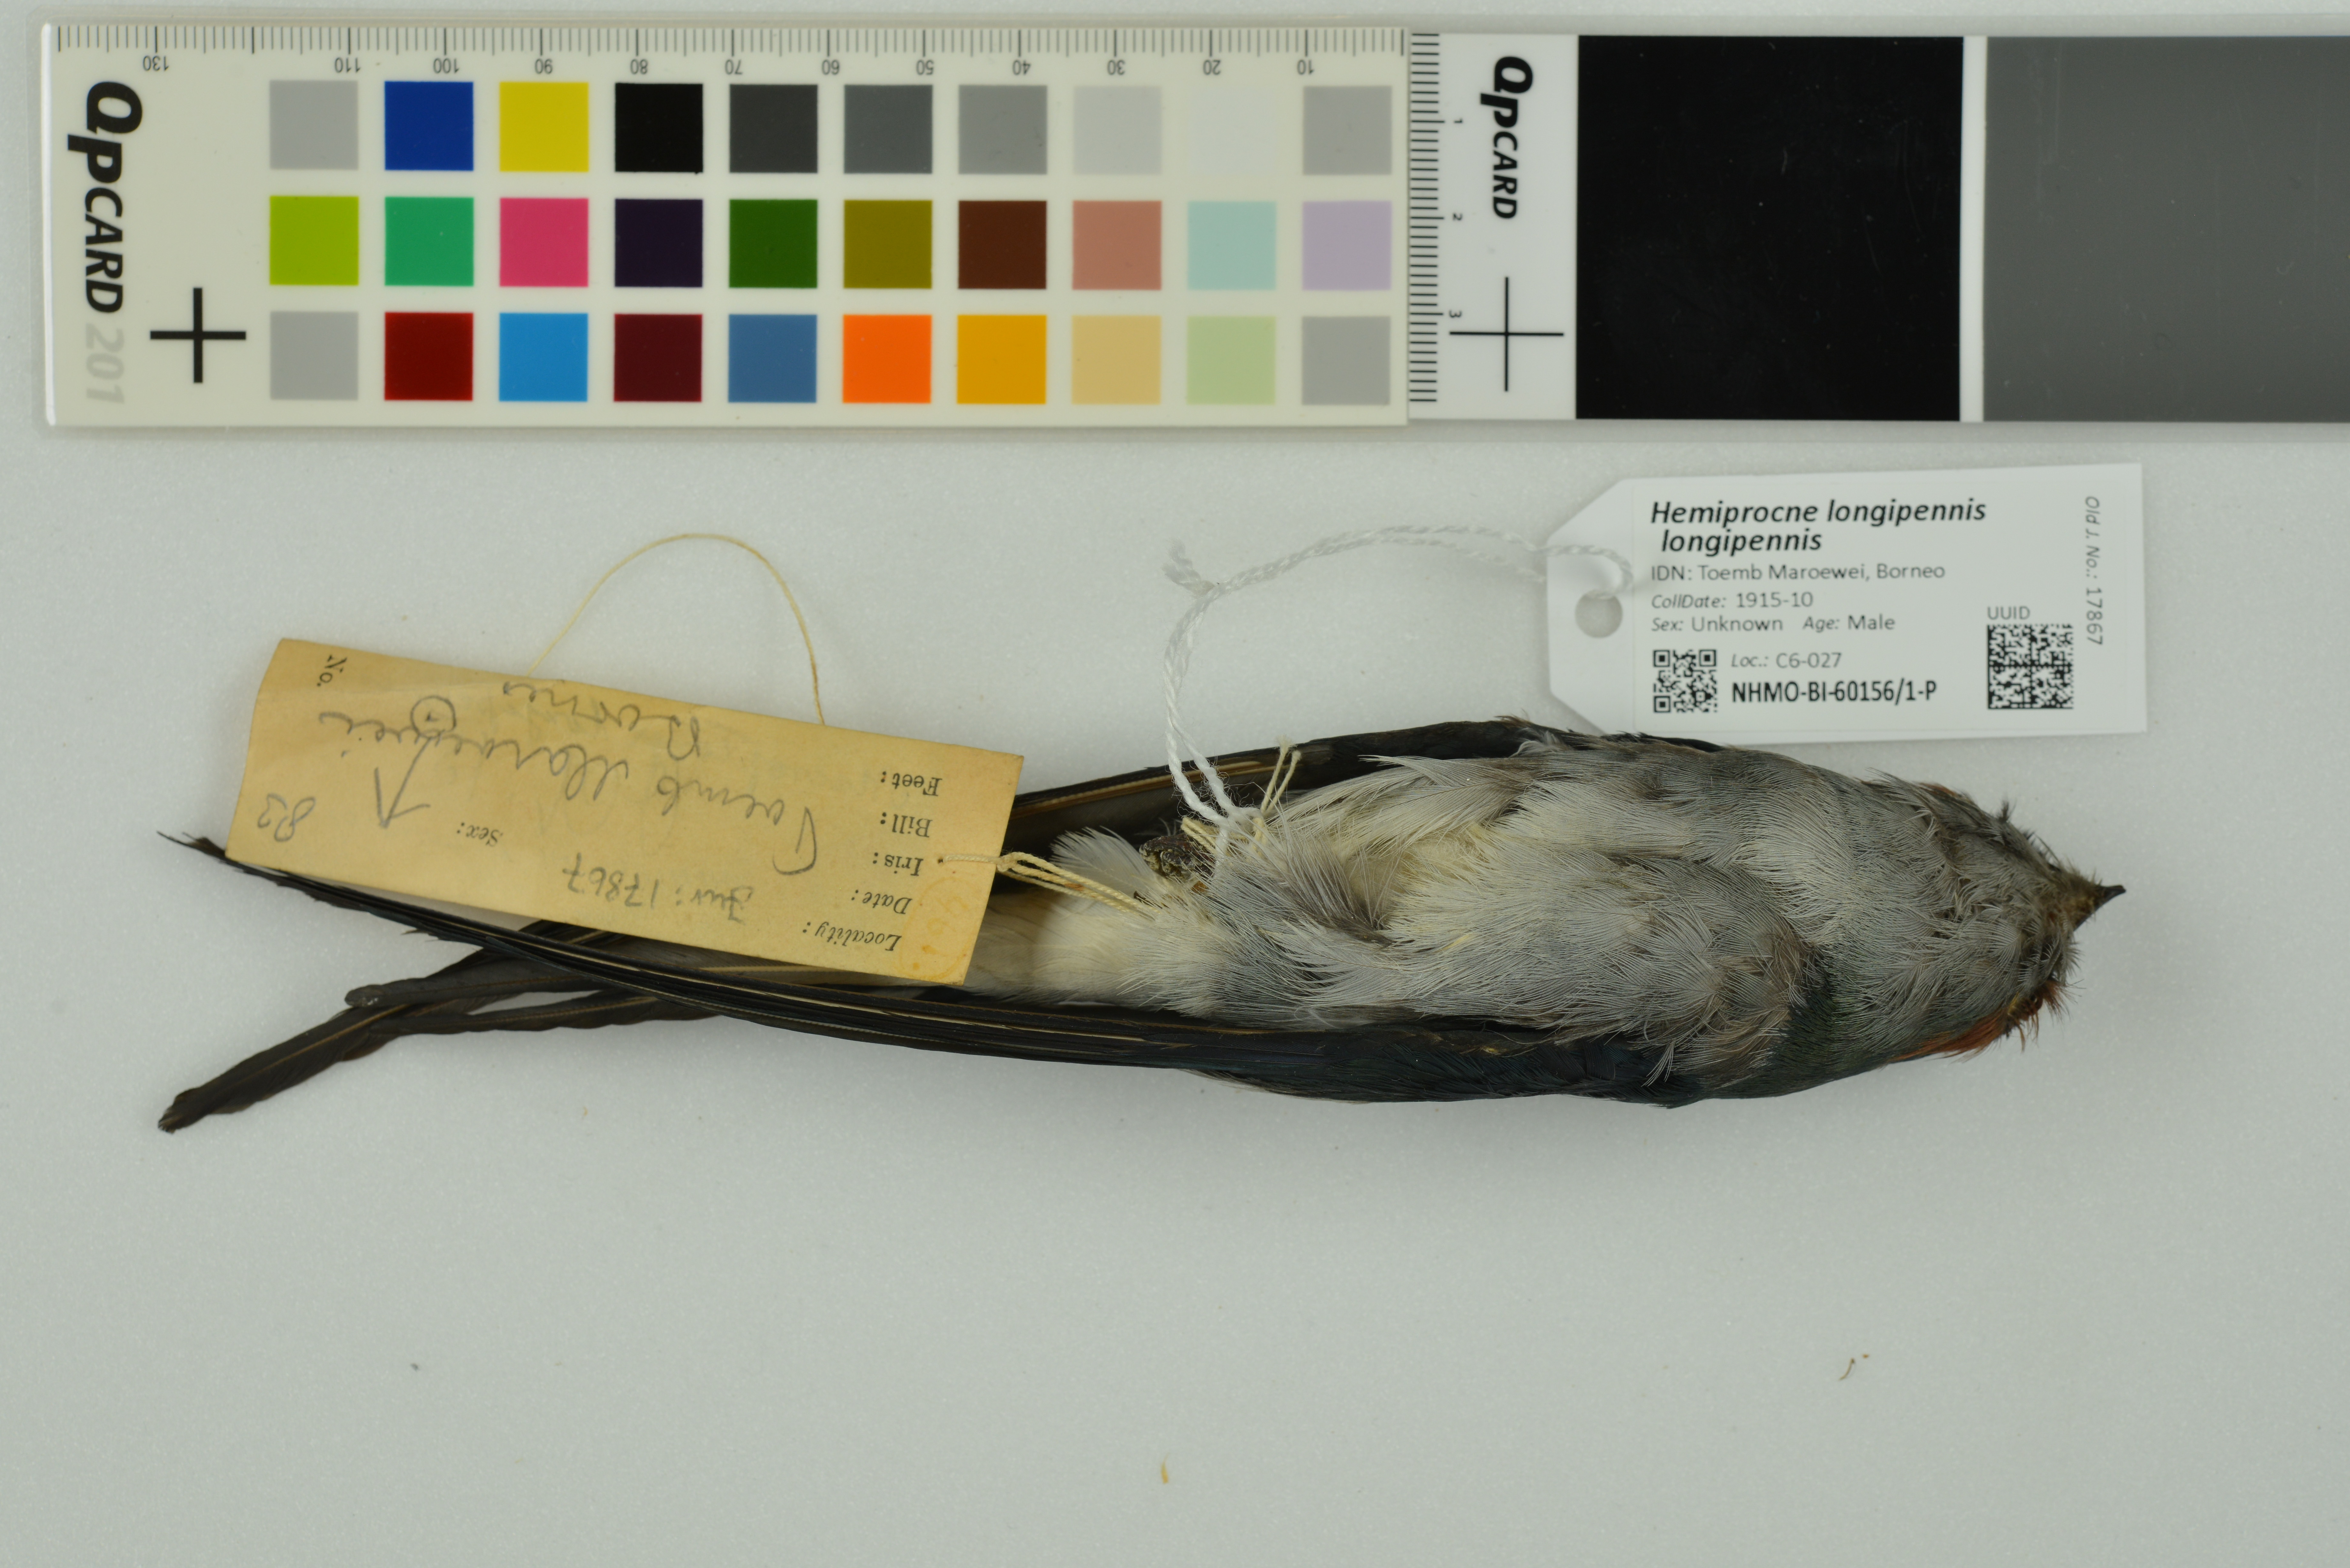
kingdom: Animalia
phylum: Chordata
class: Aves
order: Apodiformes
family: Hemiprocnidae
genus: Hemiprocne
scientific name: Hemiprocne longipennis
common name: Grey-rumped treeswift
